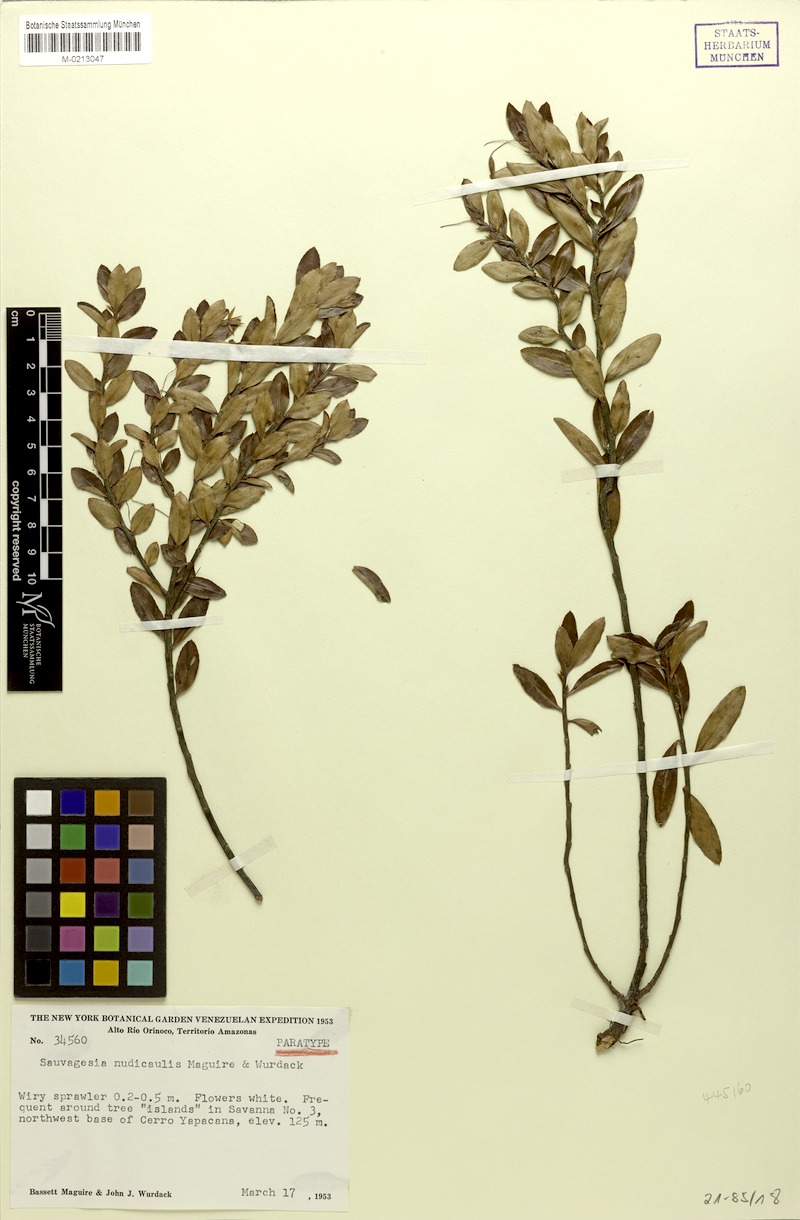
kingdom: Plantae
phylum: Tracheophyta
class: Magnoliopsida
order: Malpighiales
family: Ochnaceae
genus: Sauvagesia
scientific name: Sauvagesia nudicaulis
